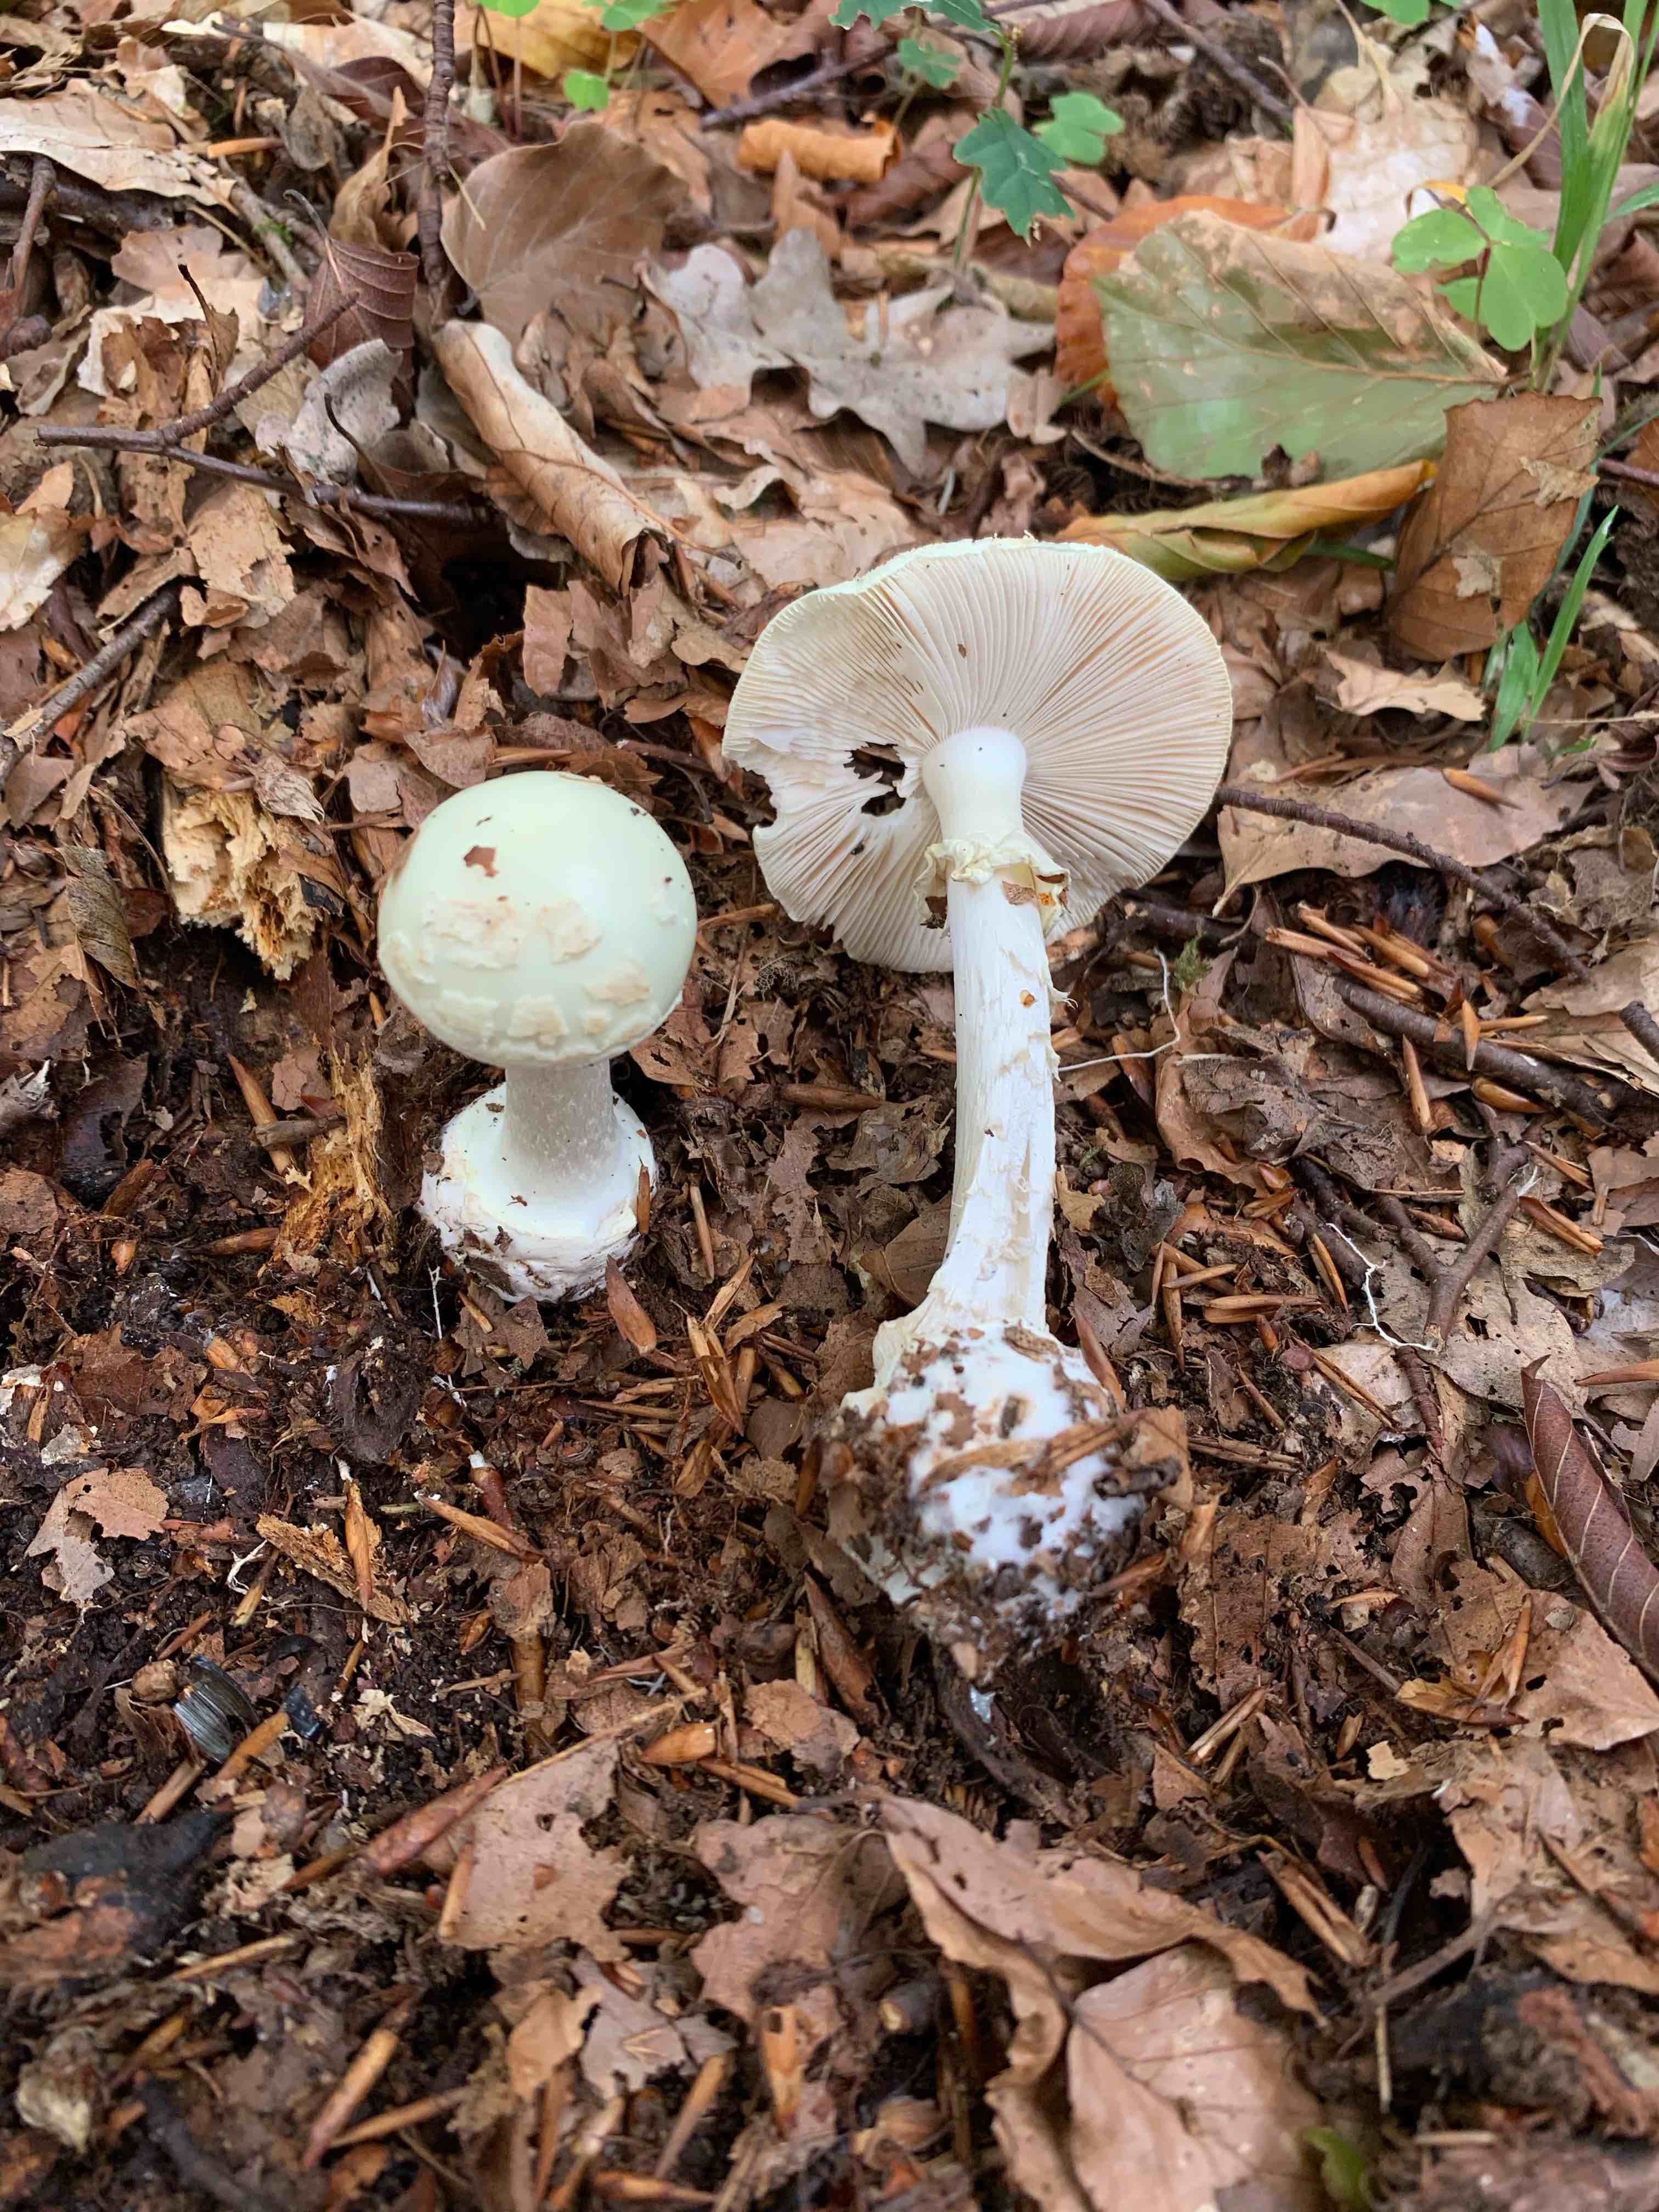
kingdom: Fungi
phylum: Basidiomycota
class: Agaricomycetes
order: Agaricales
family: Amanitaceae
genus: Amanita
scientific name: Amanita citrina
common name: kugleknoldet fluesvamp
